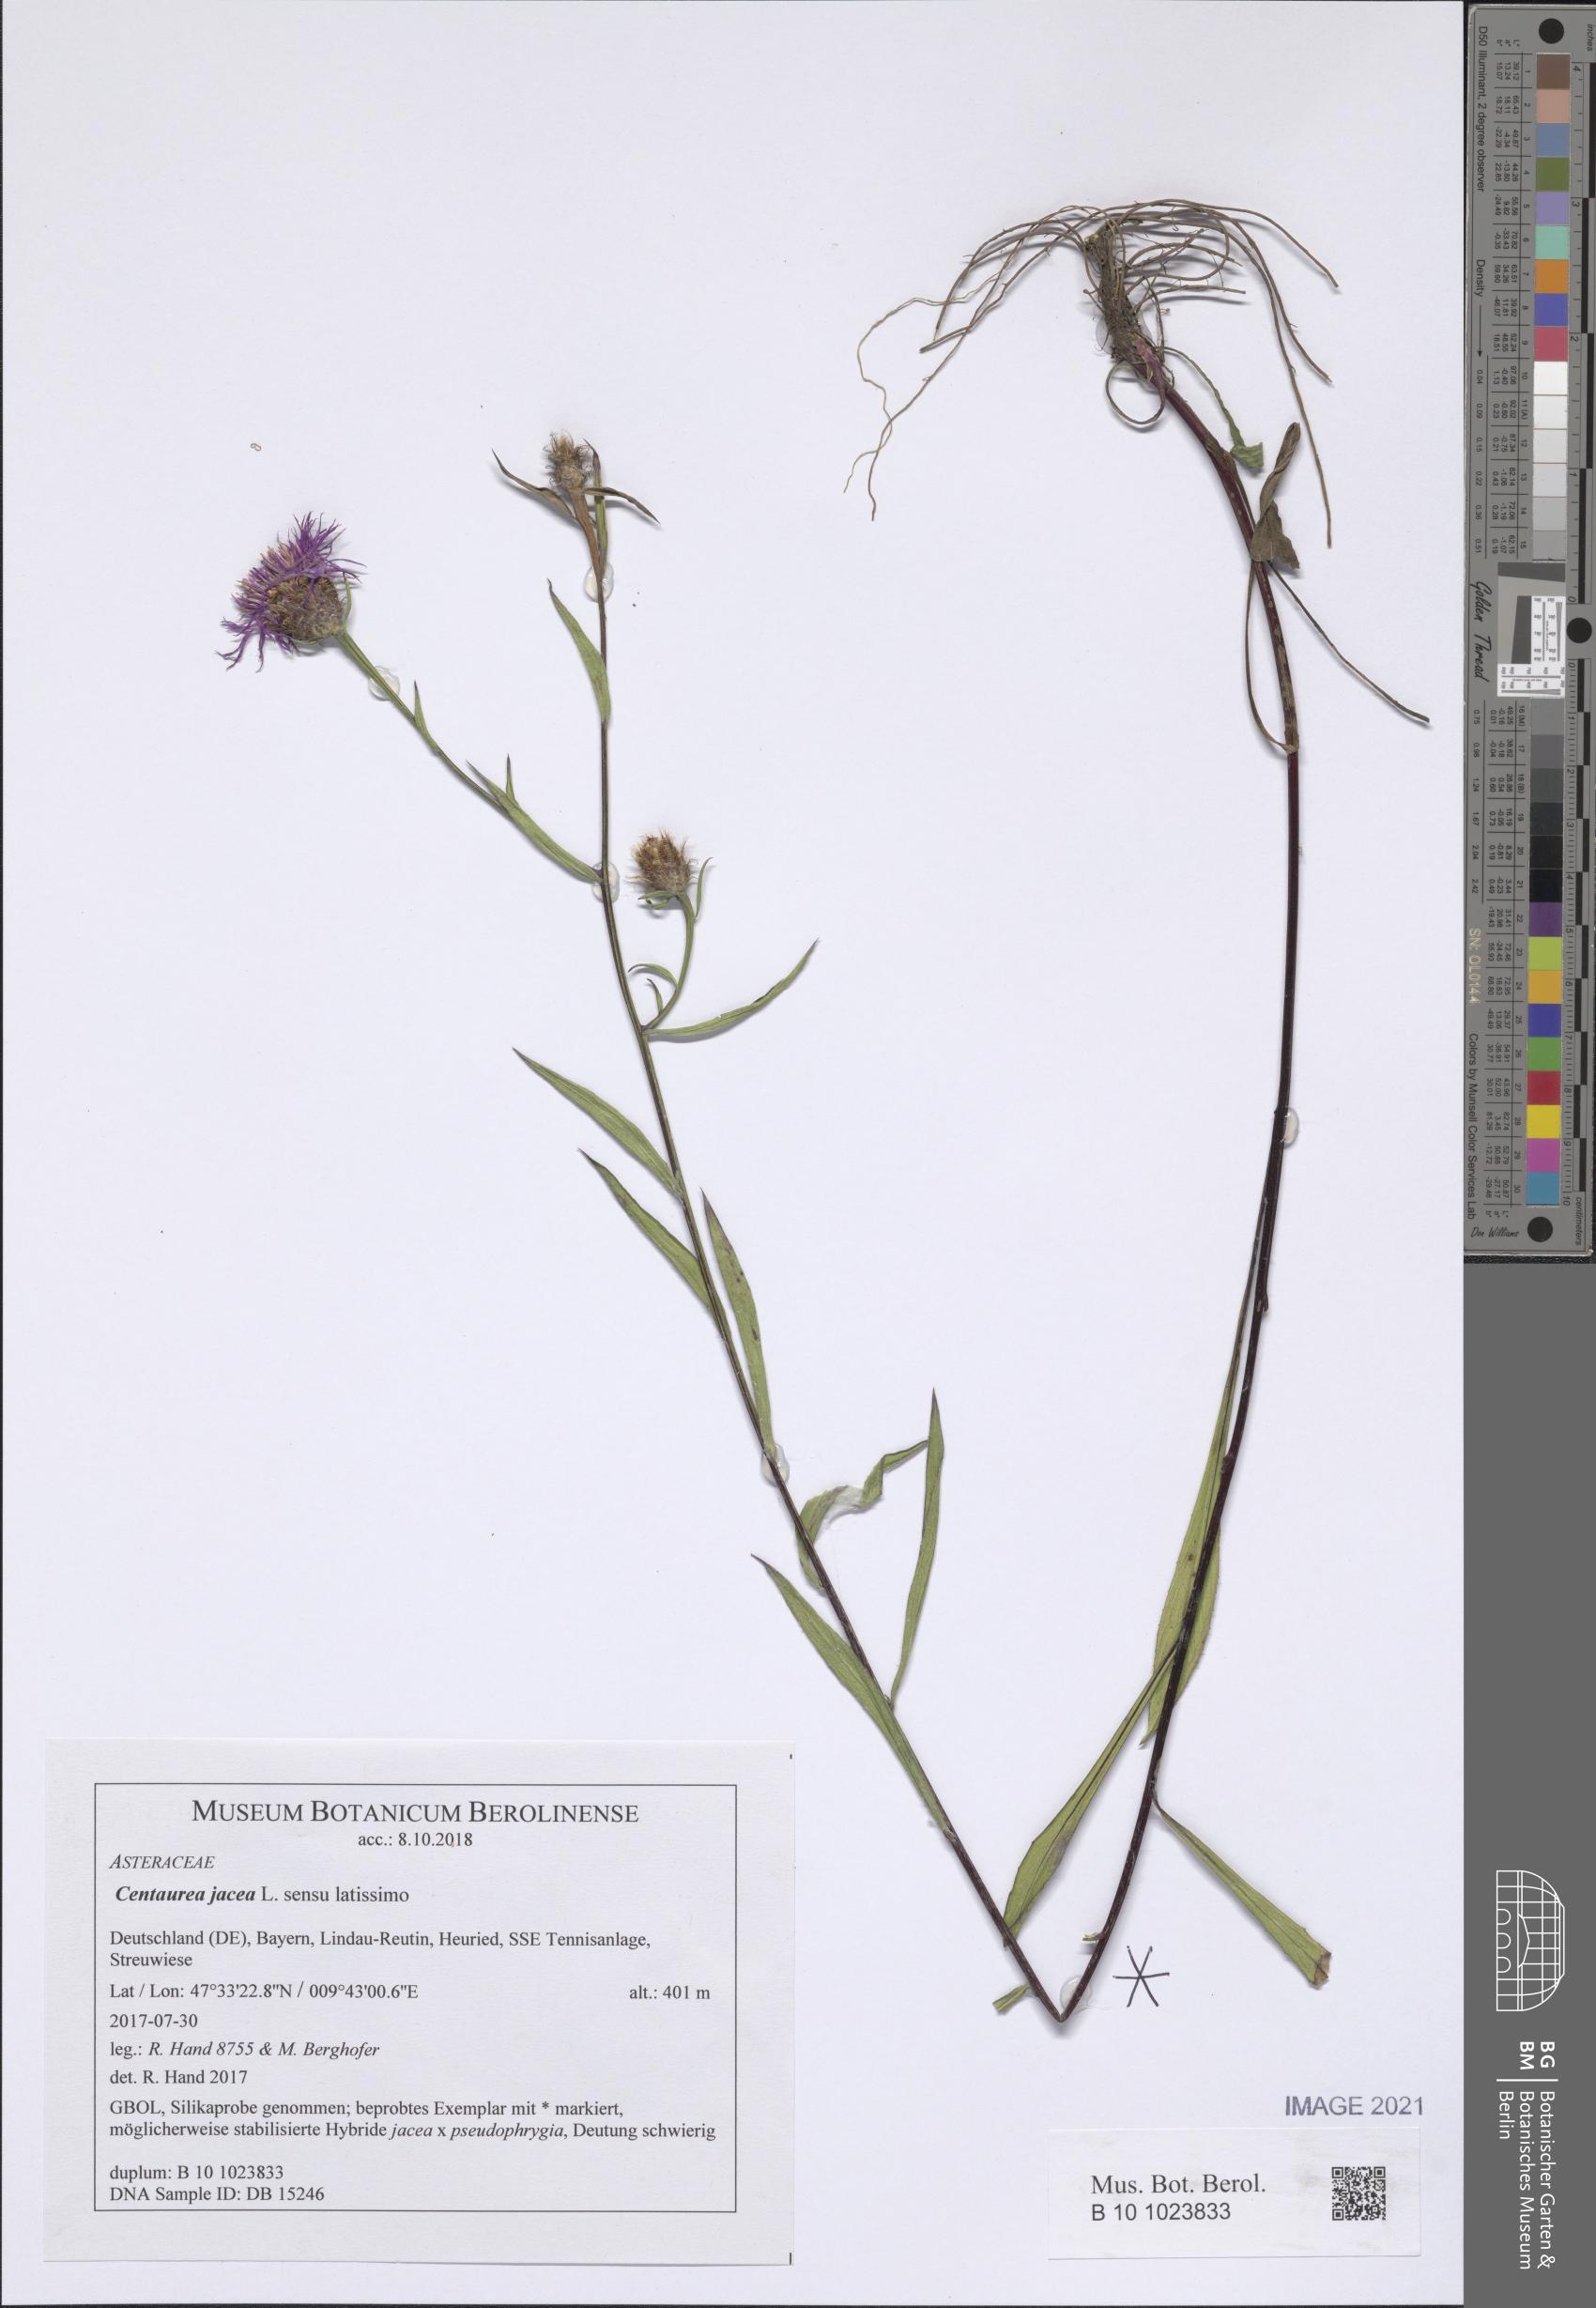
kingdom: Plantae
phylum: Tracheophyta
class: Magnoliopsida
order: Asterales
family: Asteraceae
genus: Centaurea
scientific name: Centaurea jacea
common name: Brown knapweed
